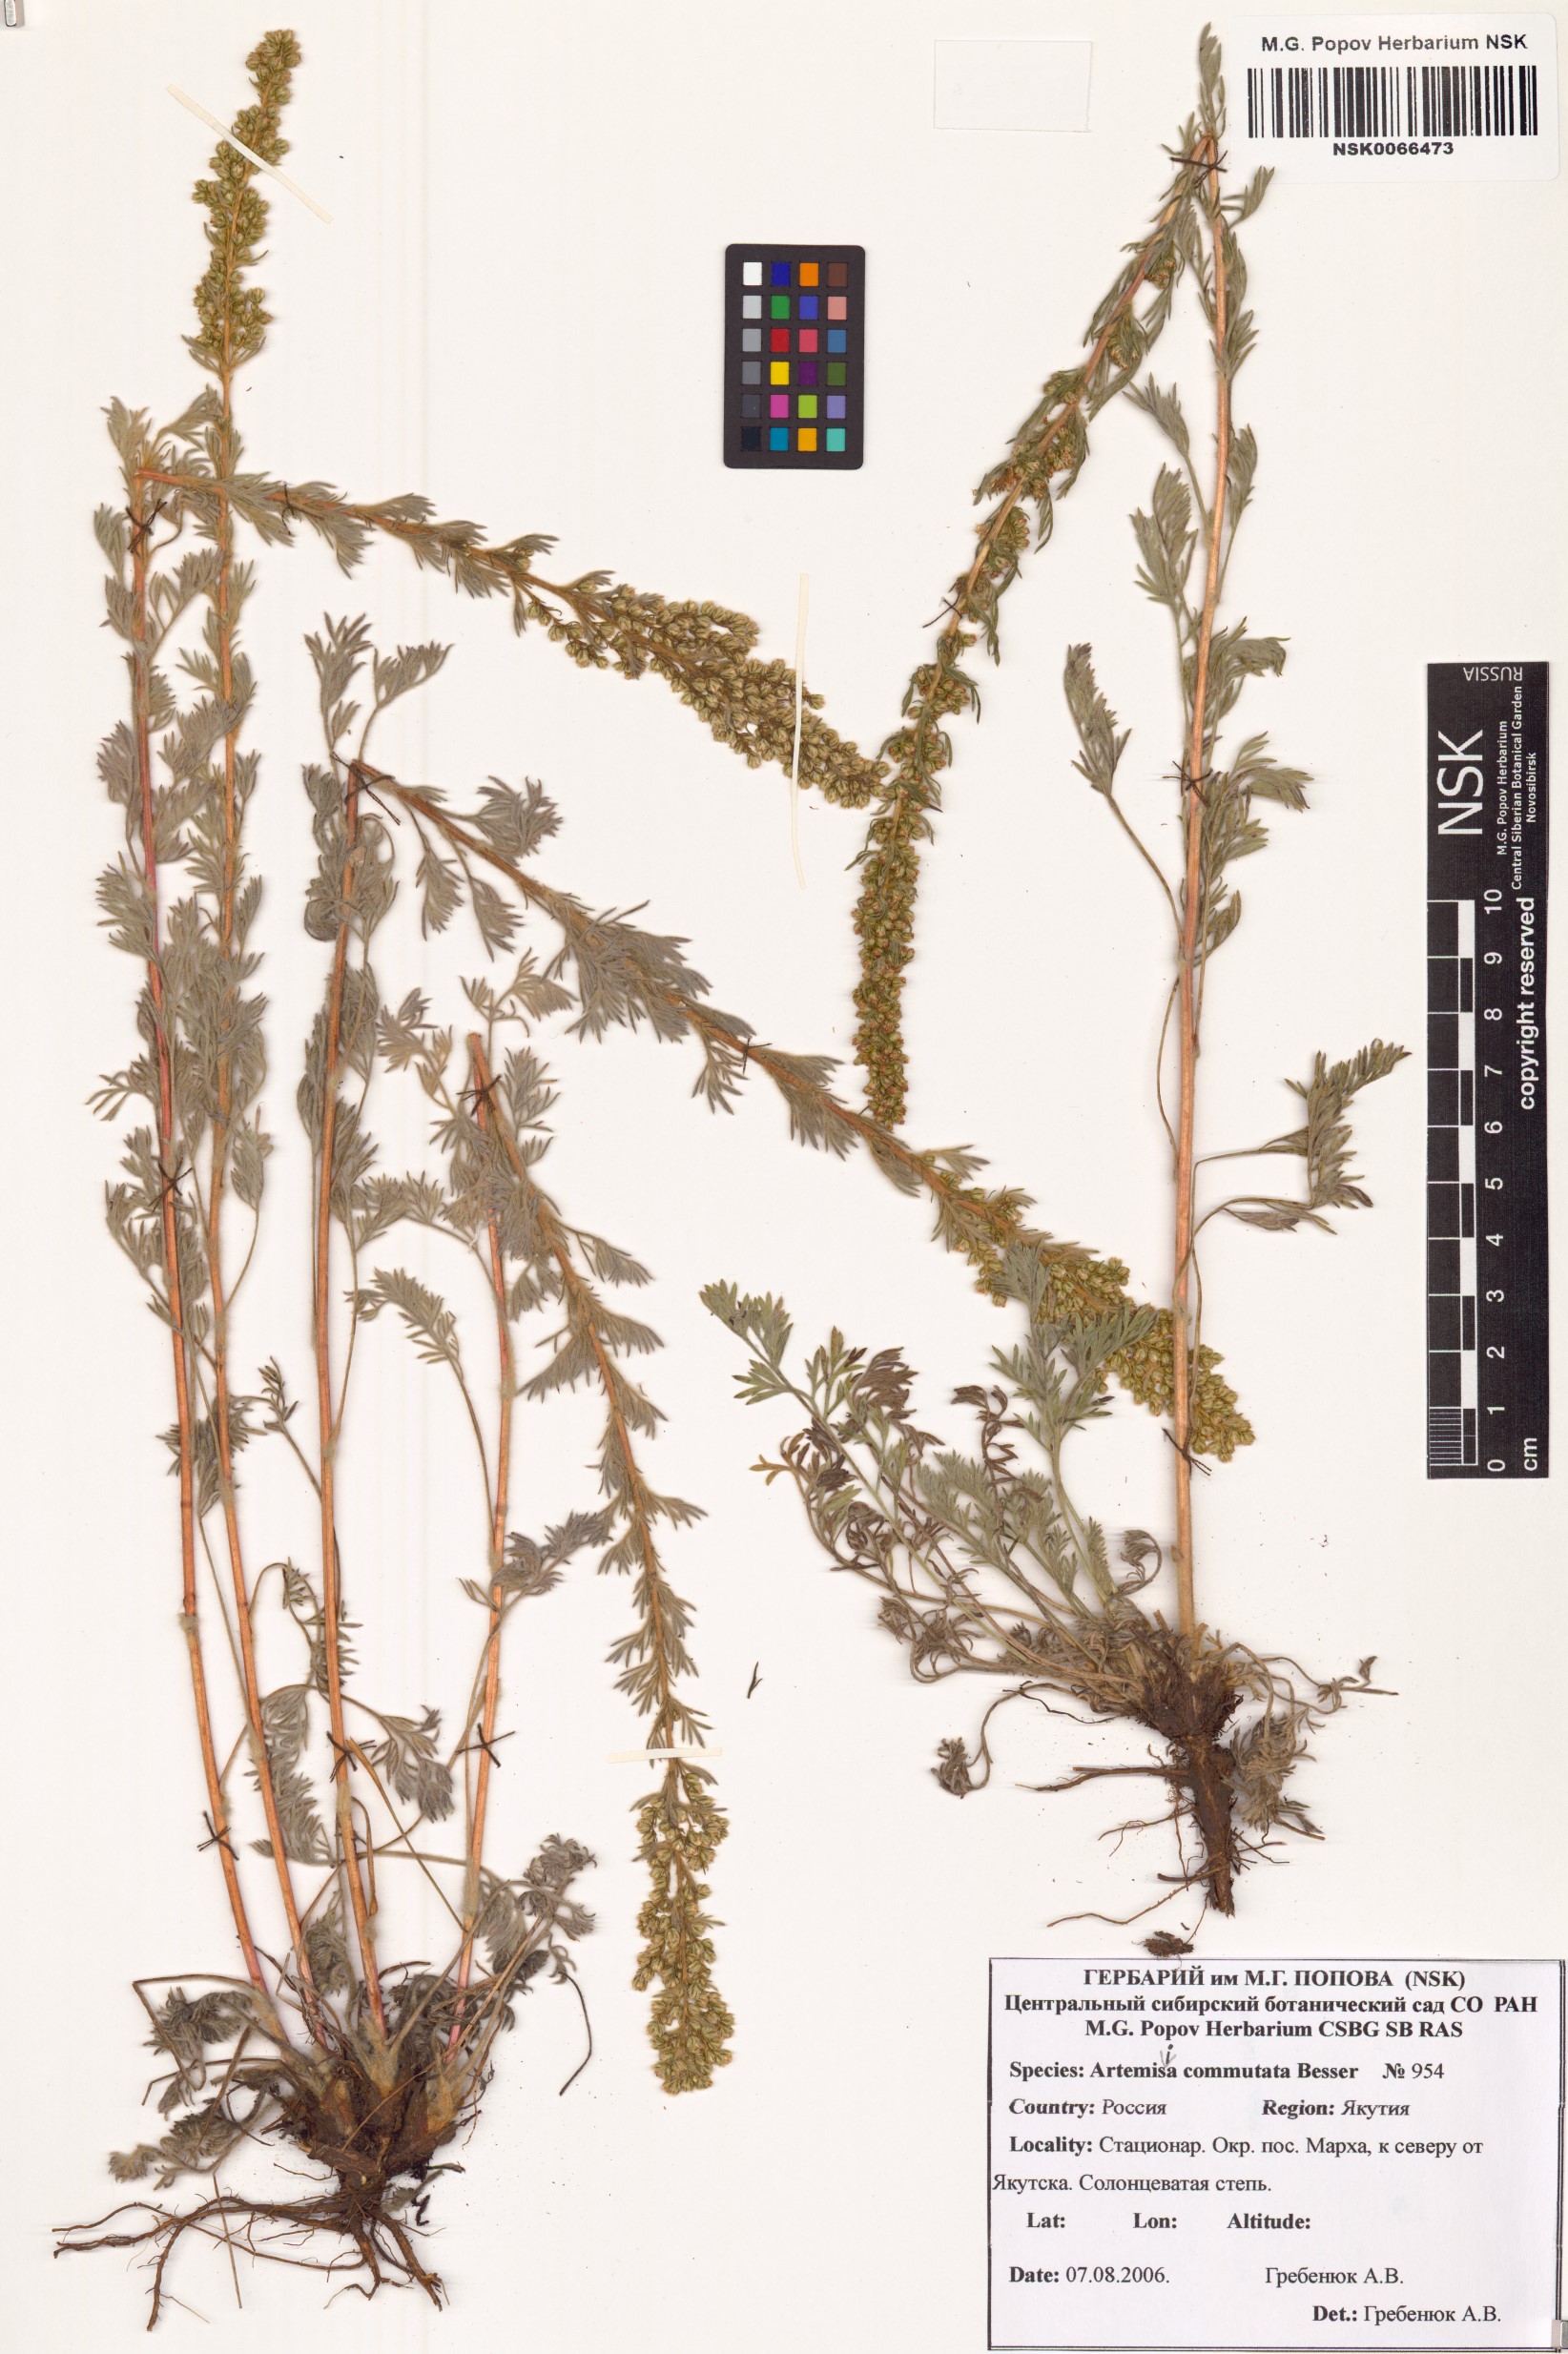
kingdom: Plantae
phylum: Tracheophyta
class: Magnoliopsida
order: Asterales
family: Asteraceae
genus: Artemisia
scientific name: Artemisia pubescens
